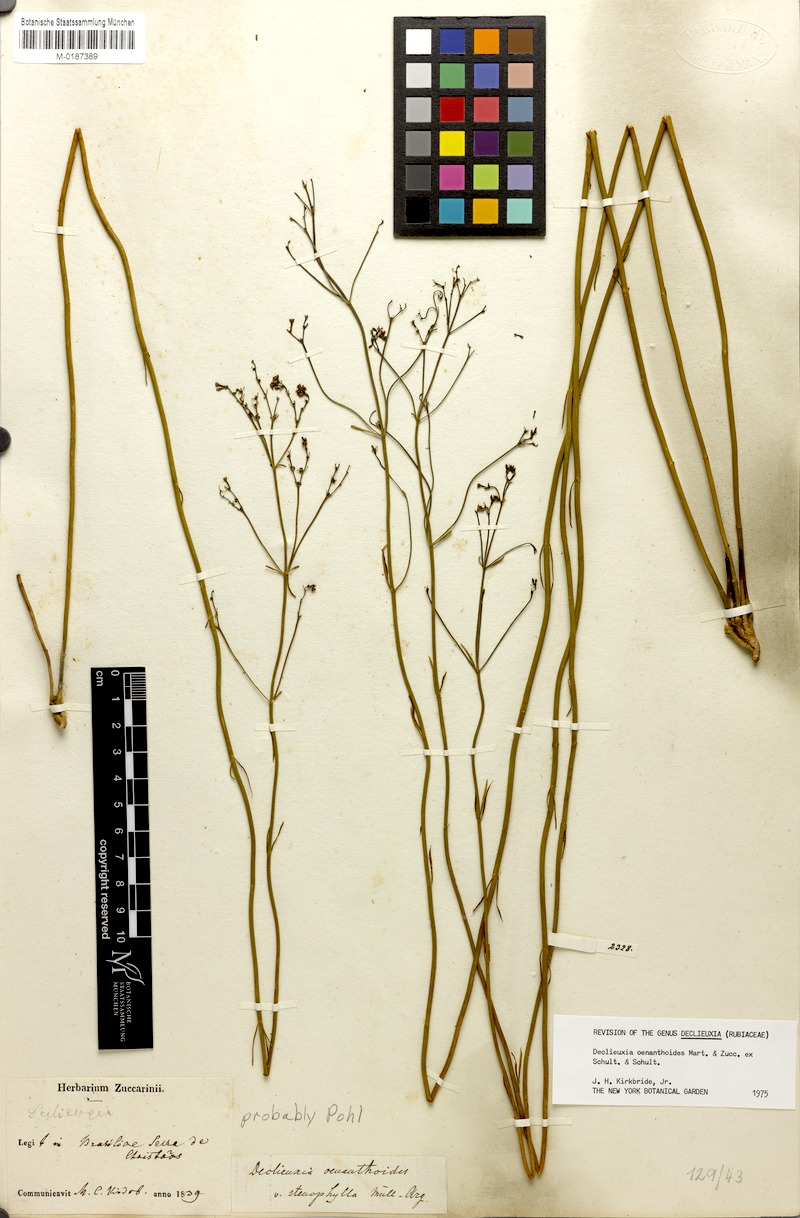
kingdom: Plantae
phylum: Tracheophyta
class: Magnoliopsida
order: Gentianales
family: Rubiaceae
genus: Declieuxia
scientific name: Declieuxia oenanthoides
